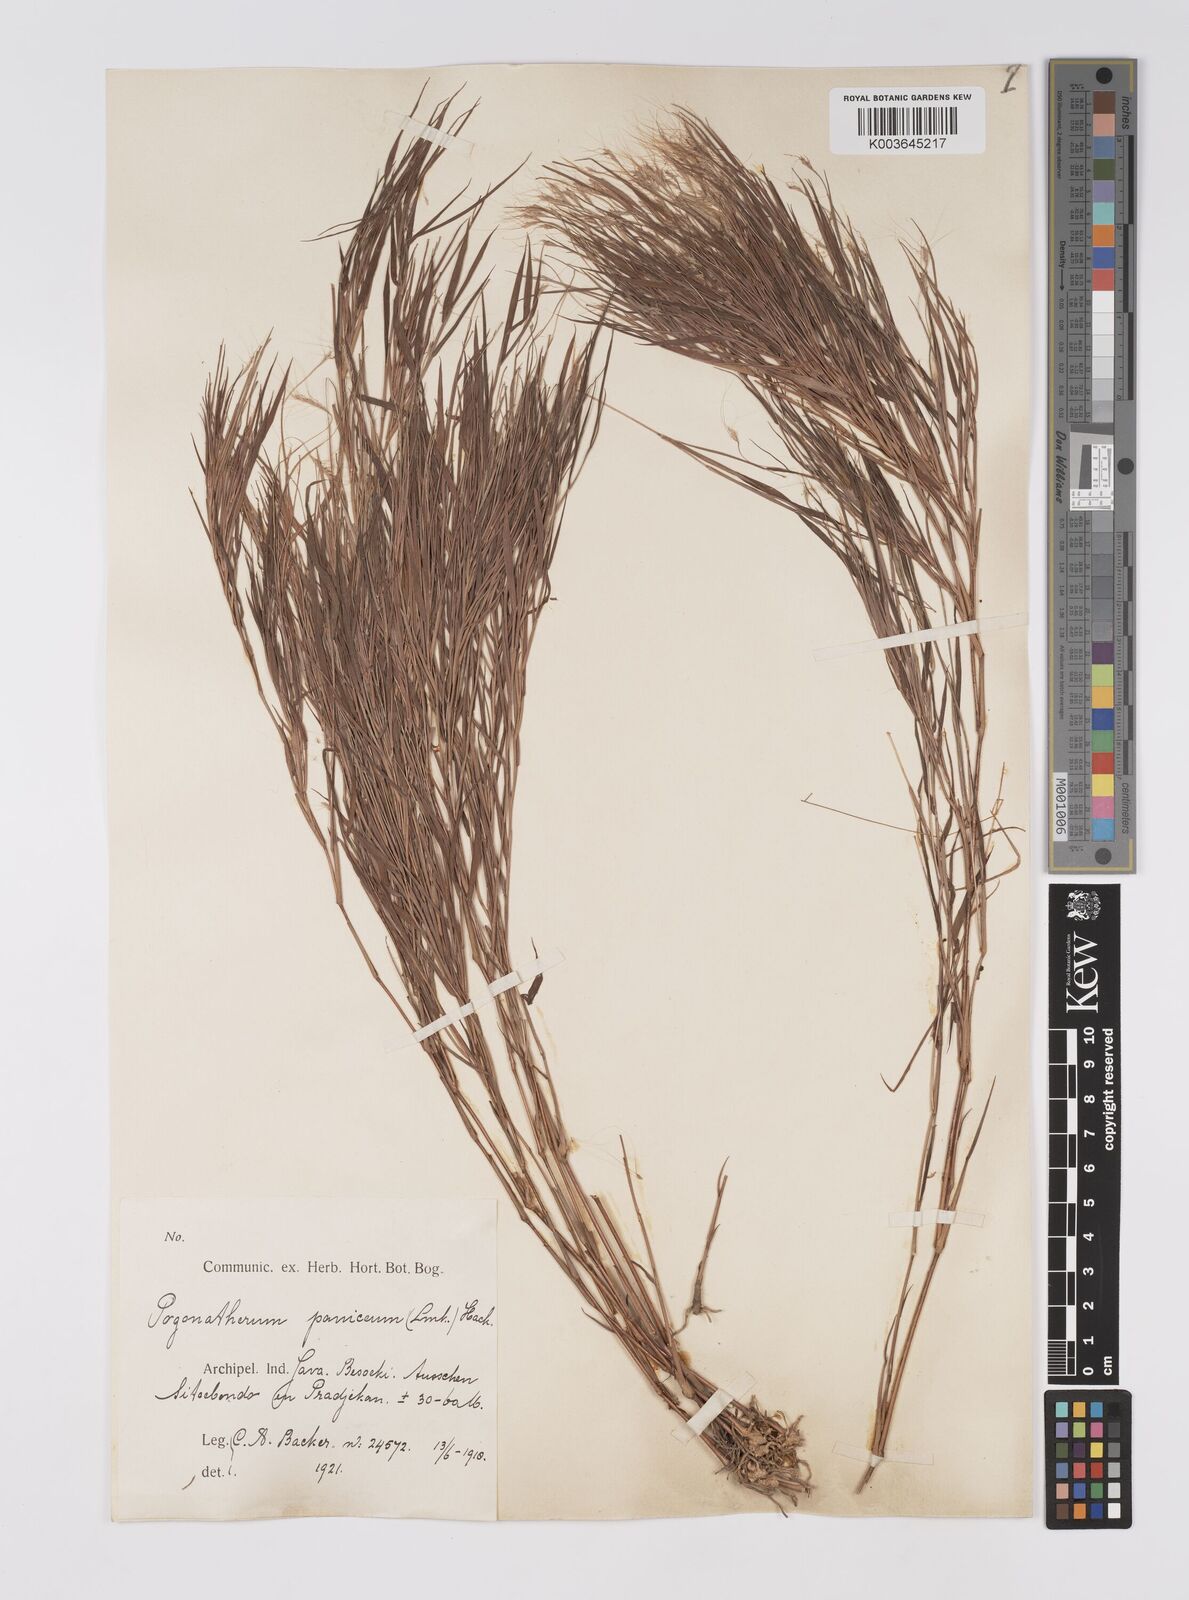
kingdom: Plantae
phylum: Tracheophyta
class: Liliopsida
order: Poales
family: Poaceae
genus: Pogonatherum
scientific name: Pogonatherum paniceum
